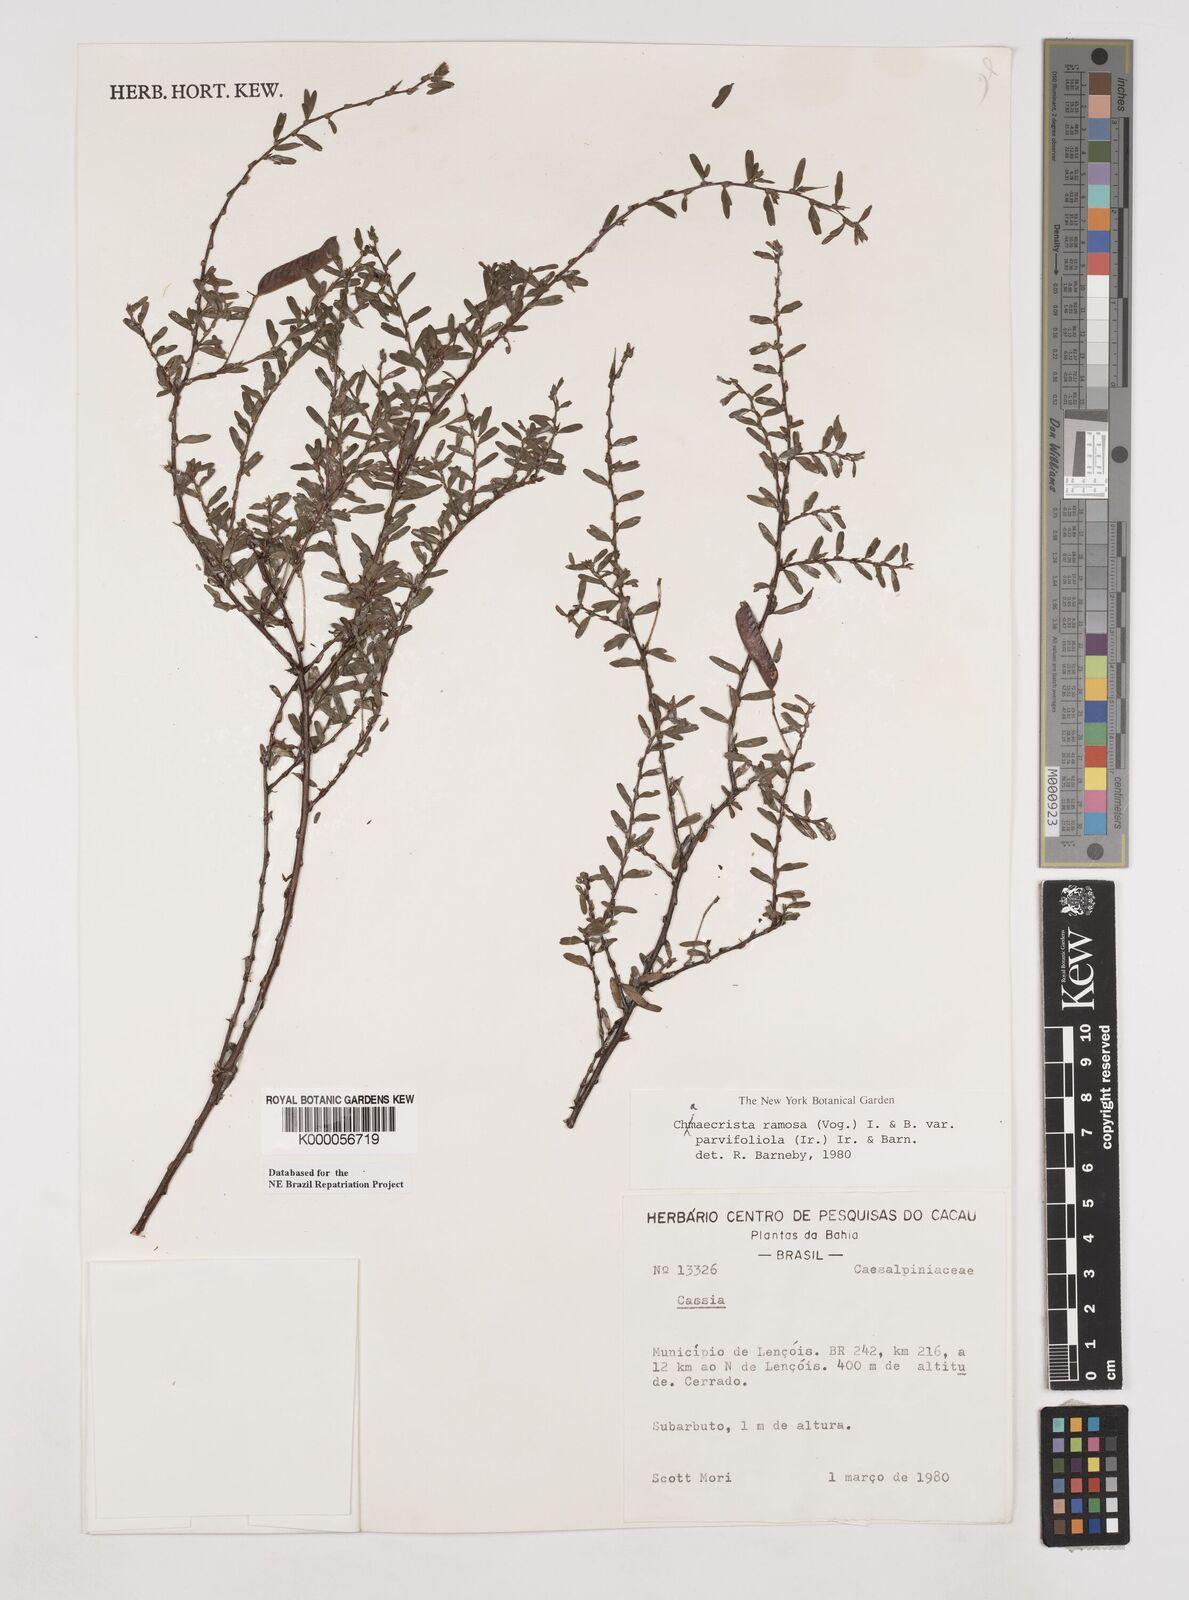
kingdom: Plantae
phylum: Tracheophyta
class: Magnoliopsida
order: Fabales
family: Fabaceae
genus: Chamaecrista
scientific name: Chamaecrista ramosa
